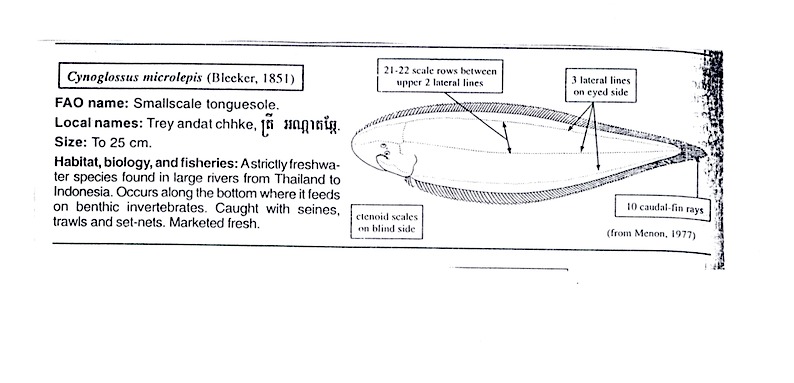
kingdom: Animalia
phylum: Chordata
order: Pleuronectiformes
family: Cynoglossidae
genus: Cynoglossus
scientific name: Cynoglossus microlepis
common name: Smallscale tonguesole
